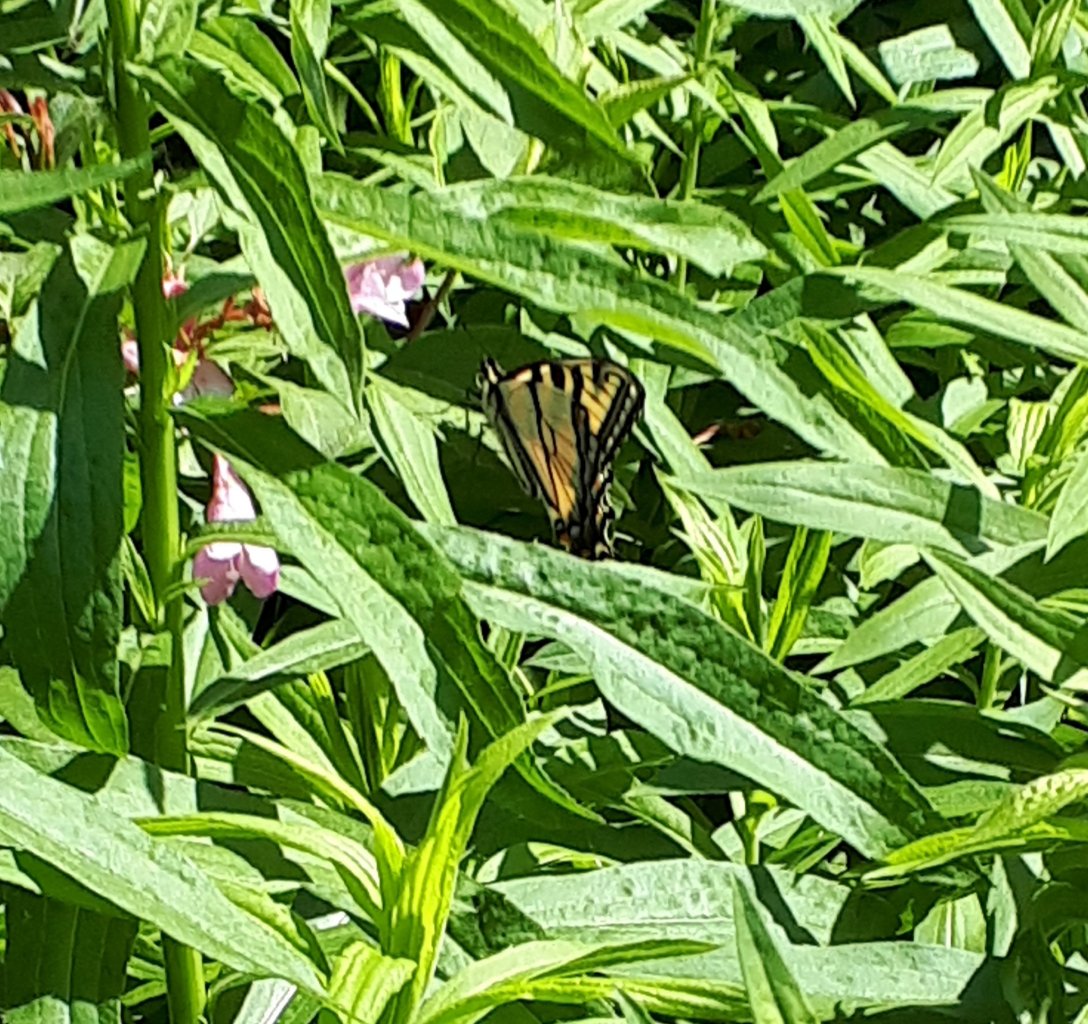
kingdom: Animalia
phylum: Arthropoda
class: Insecta
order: Lepidoptera
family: Papilionidae
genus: Pterourus
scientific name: Pterourus glaucus
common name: Eastern Tiger Swallowtail
